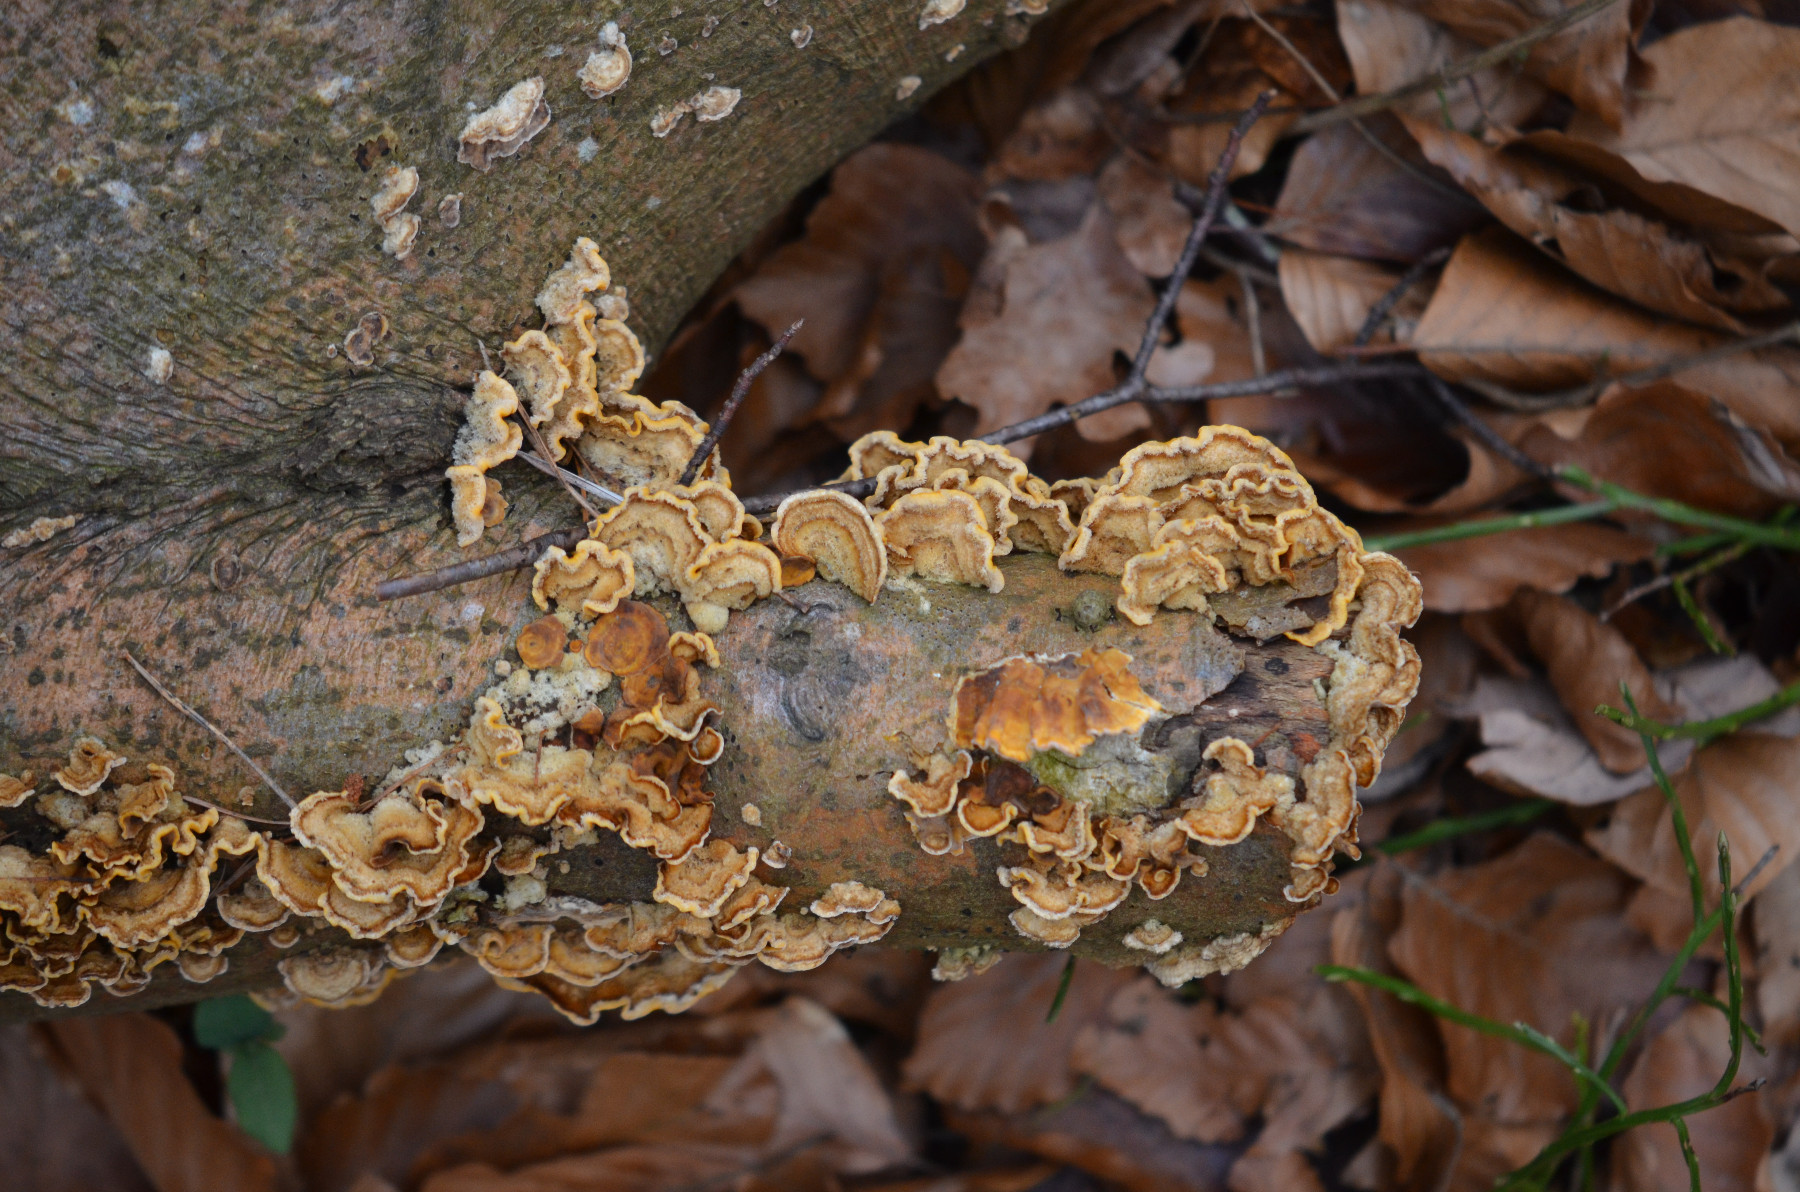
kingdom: Fungi
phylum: Basidiomycota
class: Agaricomycetes
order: Russulales
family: Stereaceae
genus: Stereum
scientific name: Stereum hirsutum
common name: håret lædersvamp
